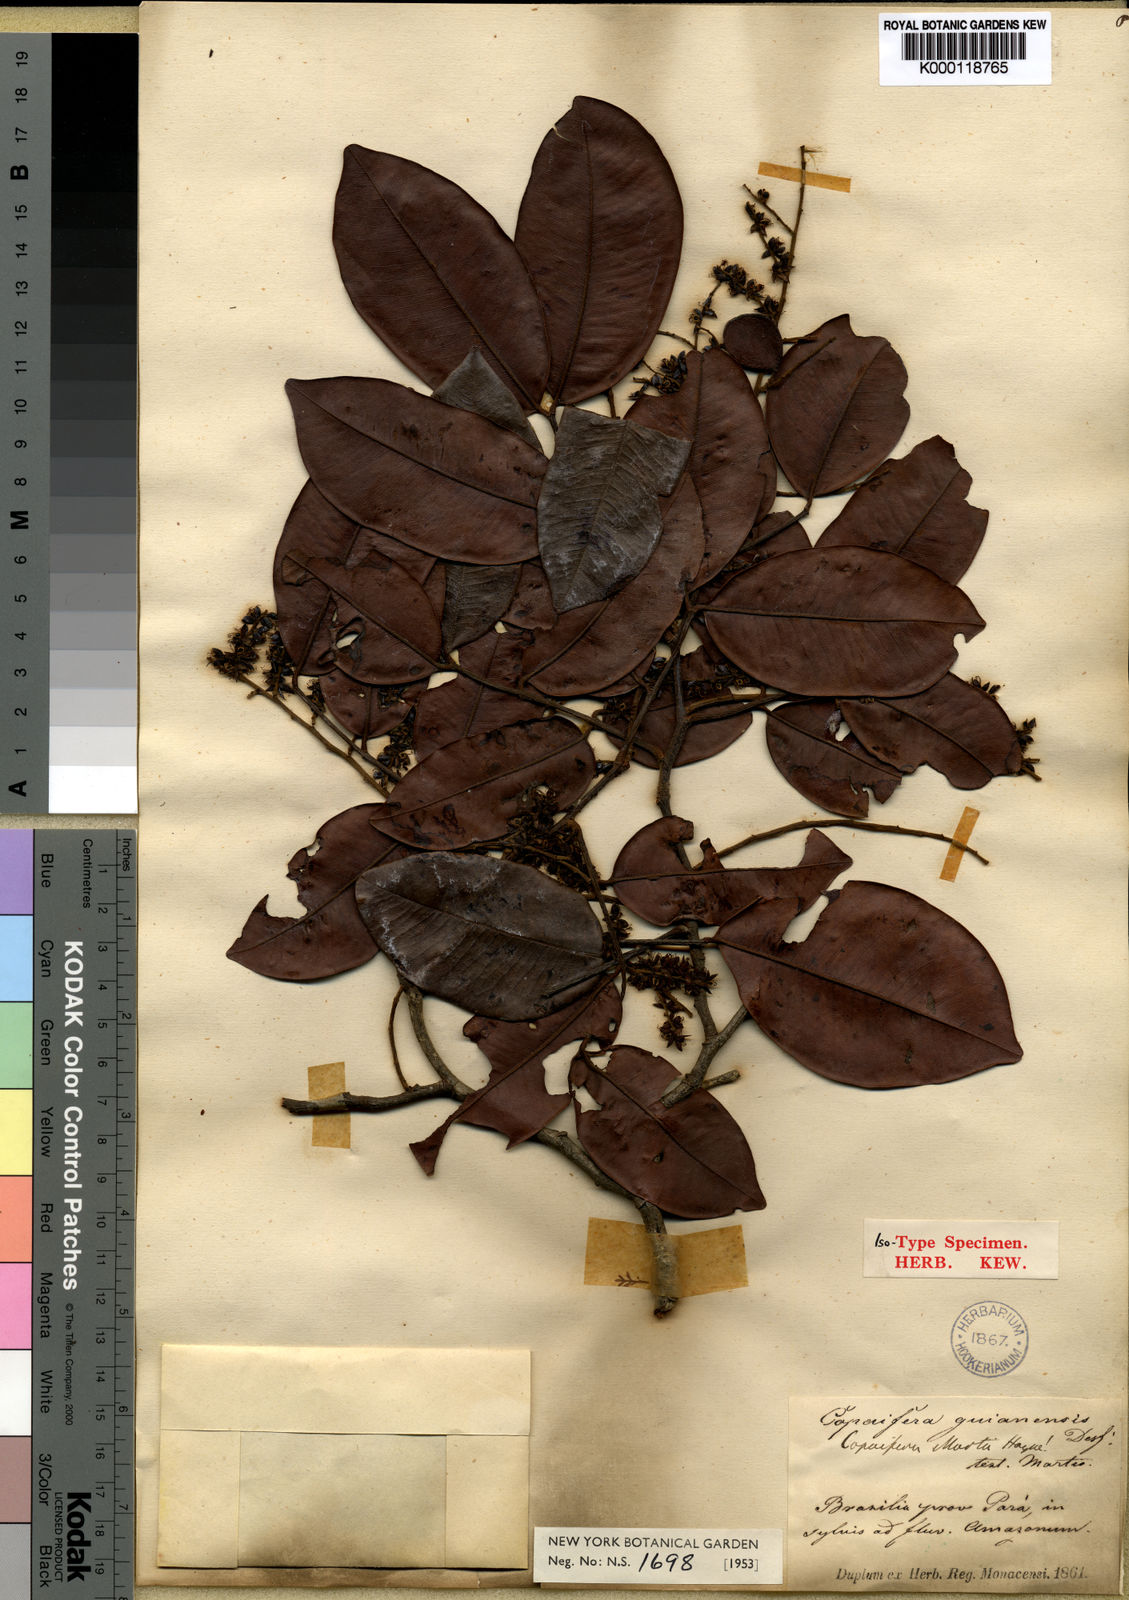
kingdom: Plantae
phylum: Tracheophyta
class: Magnoliopsida
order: Fabales
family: Fabaceae
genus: Copaifera
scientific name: Copaifera martii
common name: Copaiba
